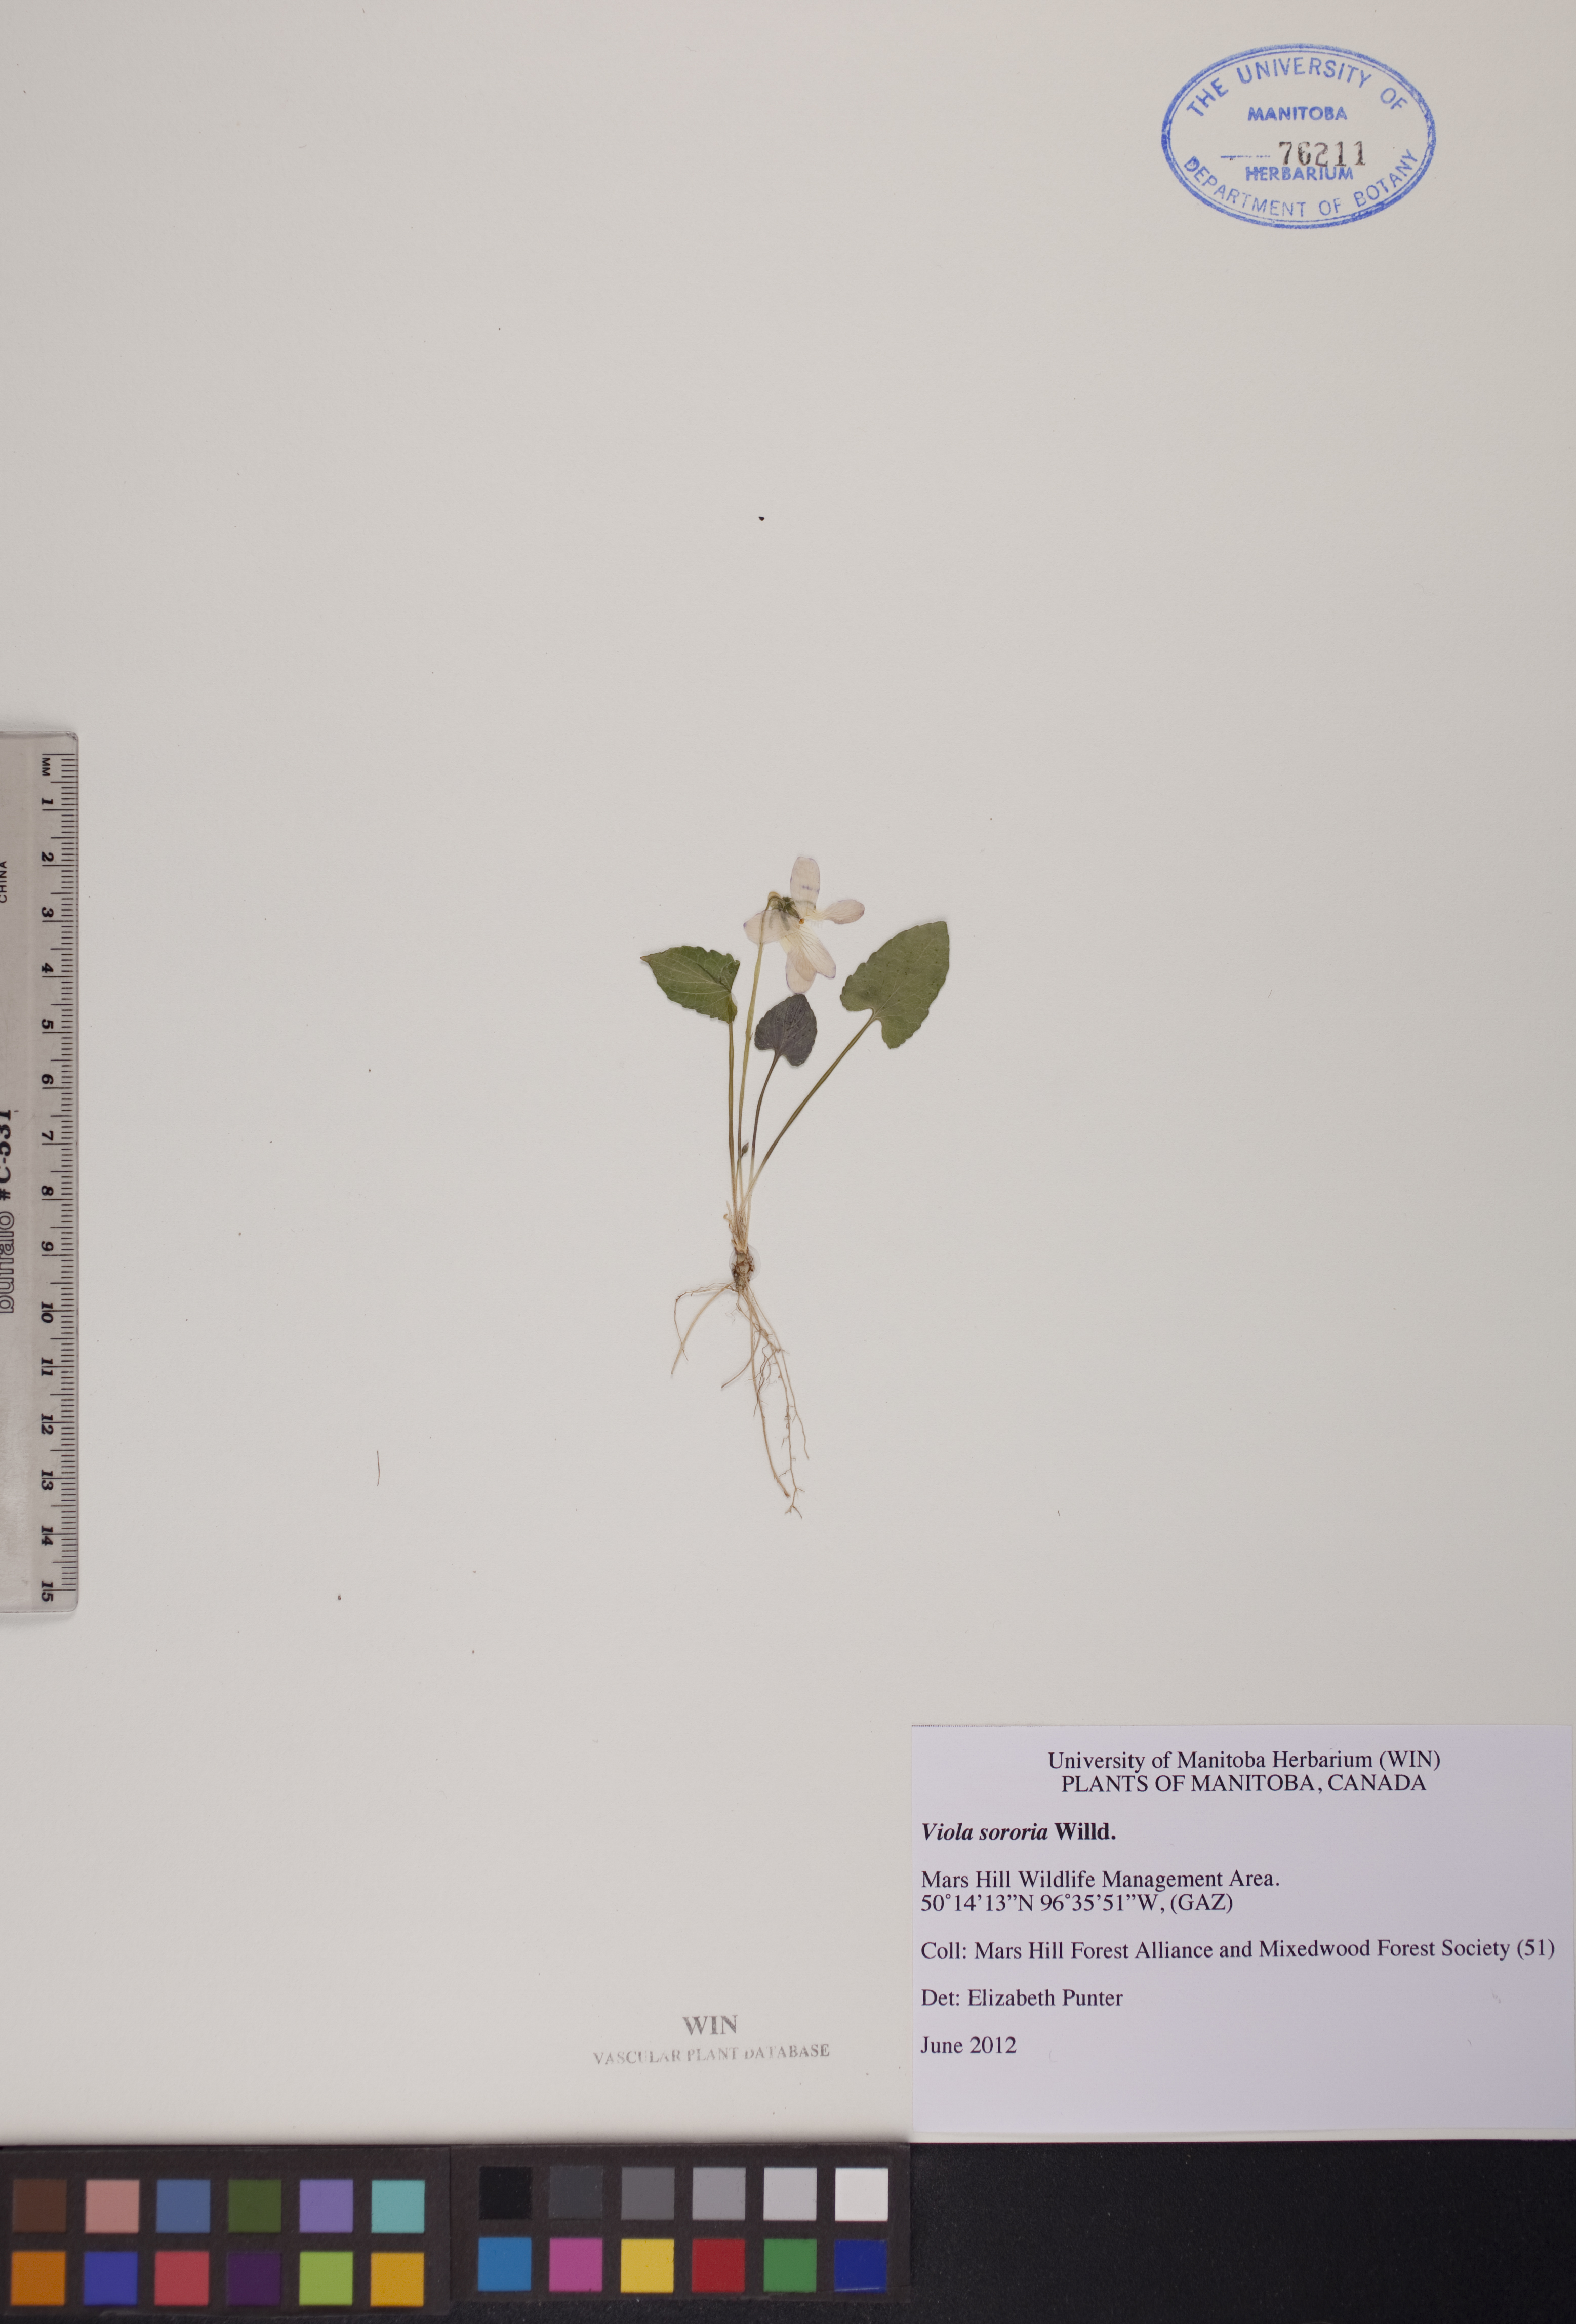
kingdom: Plantae
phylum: Tracheophyta
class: Magnoliopsida
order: Malpighiales
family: Violaceae
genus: Viola
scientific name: Viola sororia
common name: Dooryard violet
